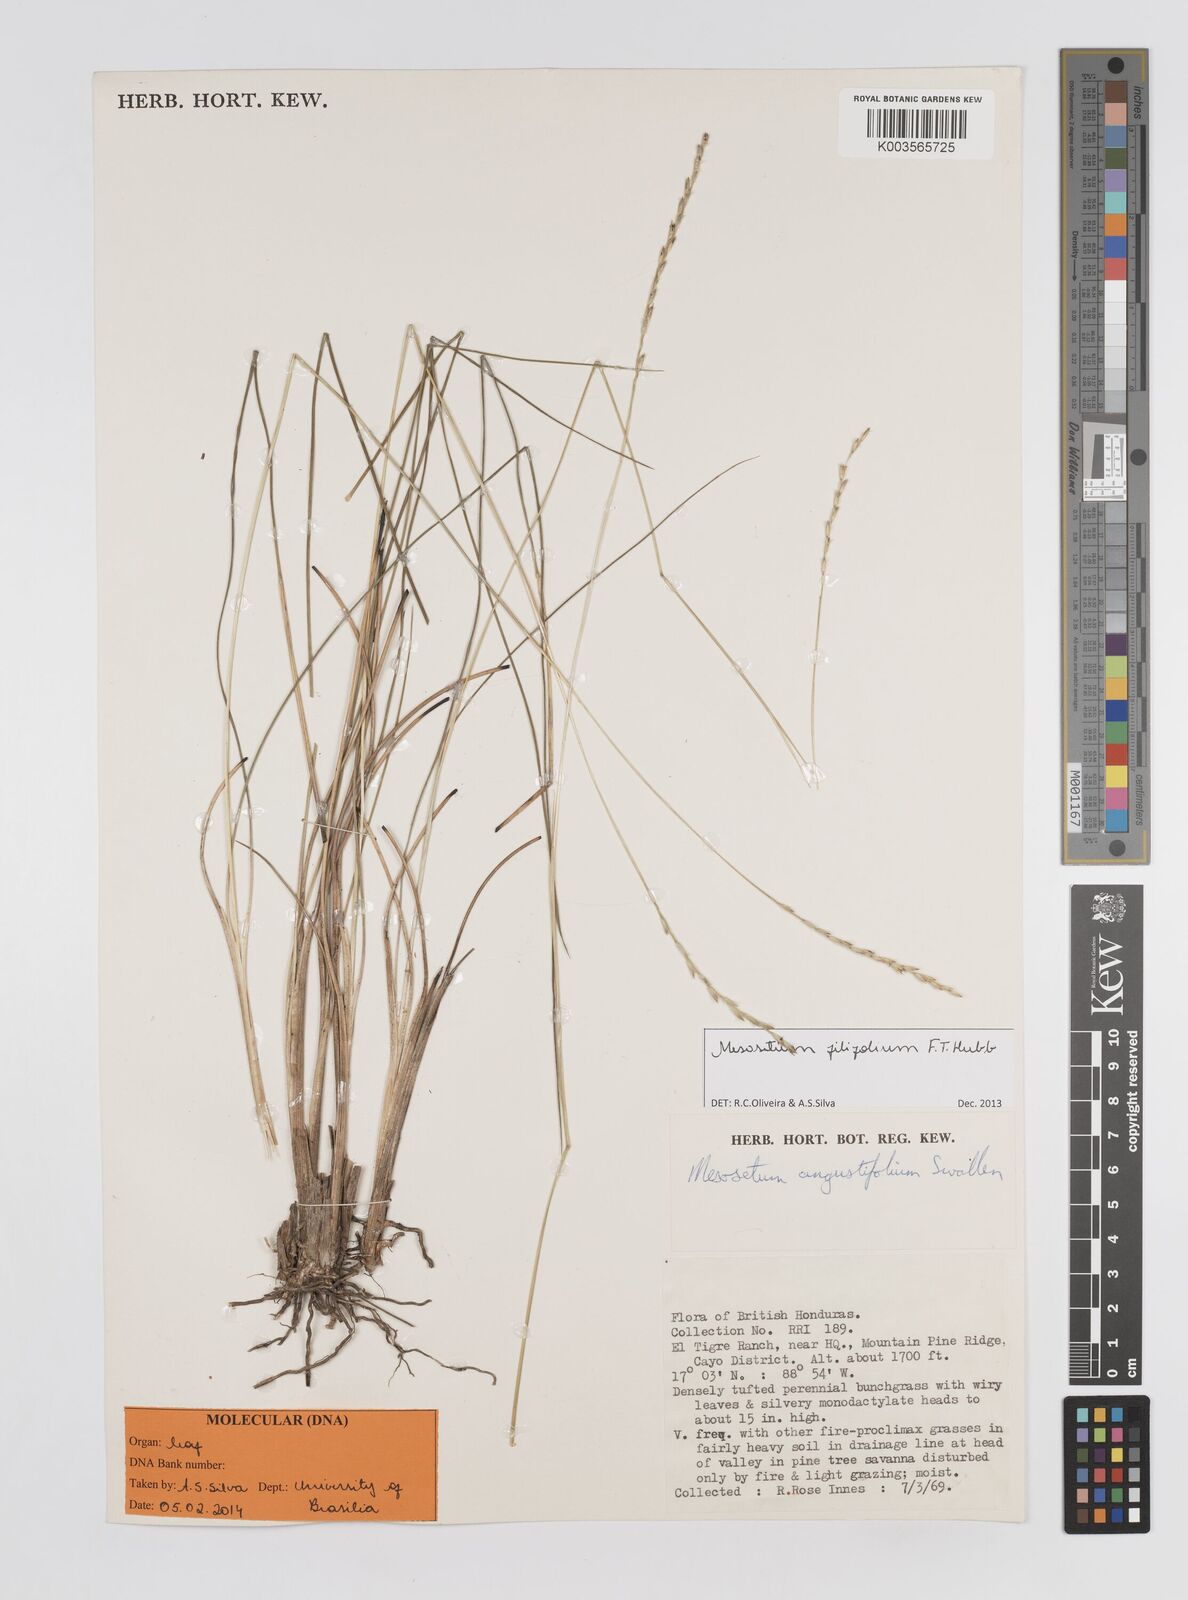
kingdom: Plantae
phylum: Tracheophyta
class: Liliopsida
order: Poales
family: Poaceae
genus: Mesosetum
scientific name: Mesosetum filifolium
